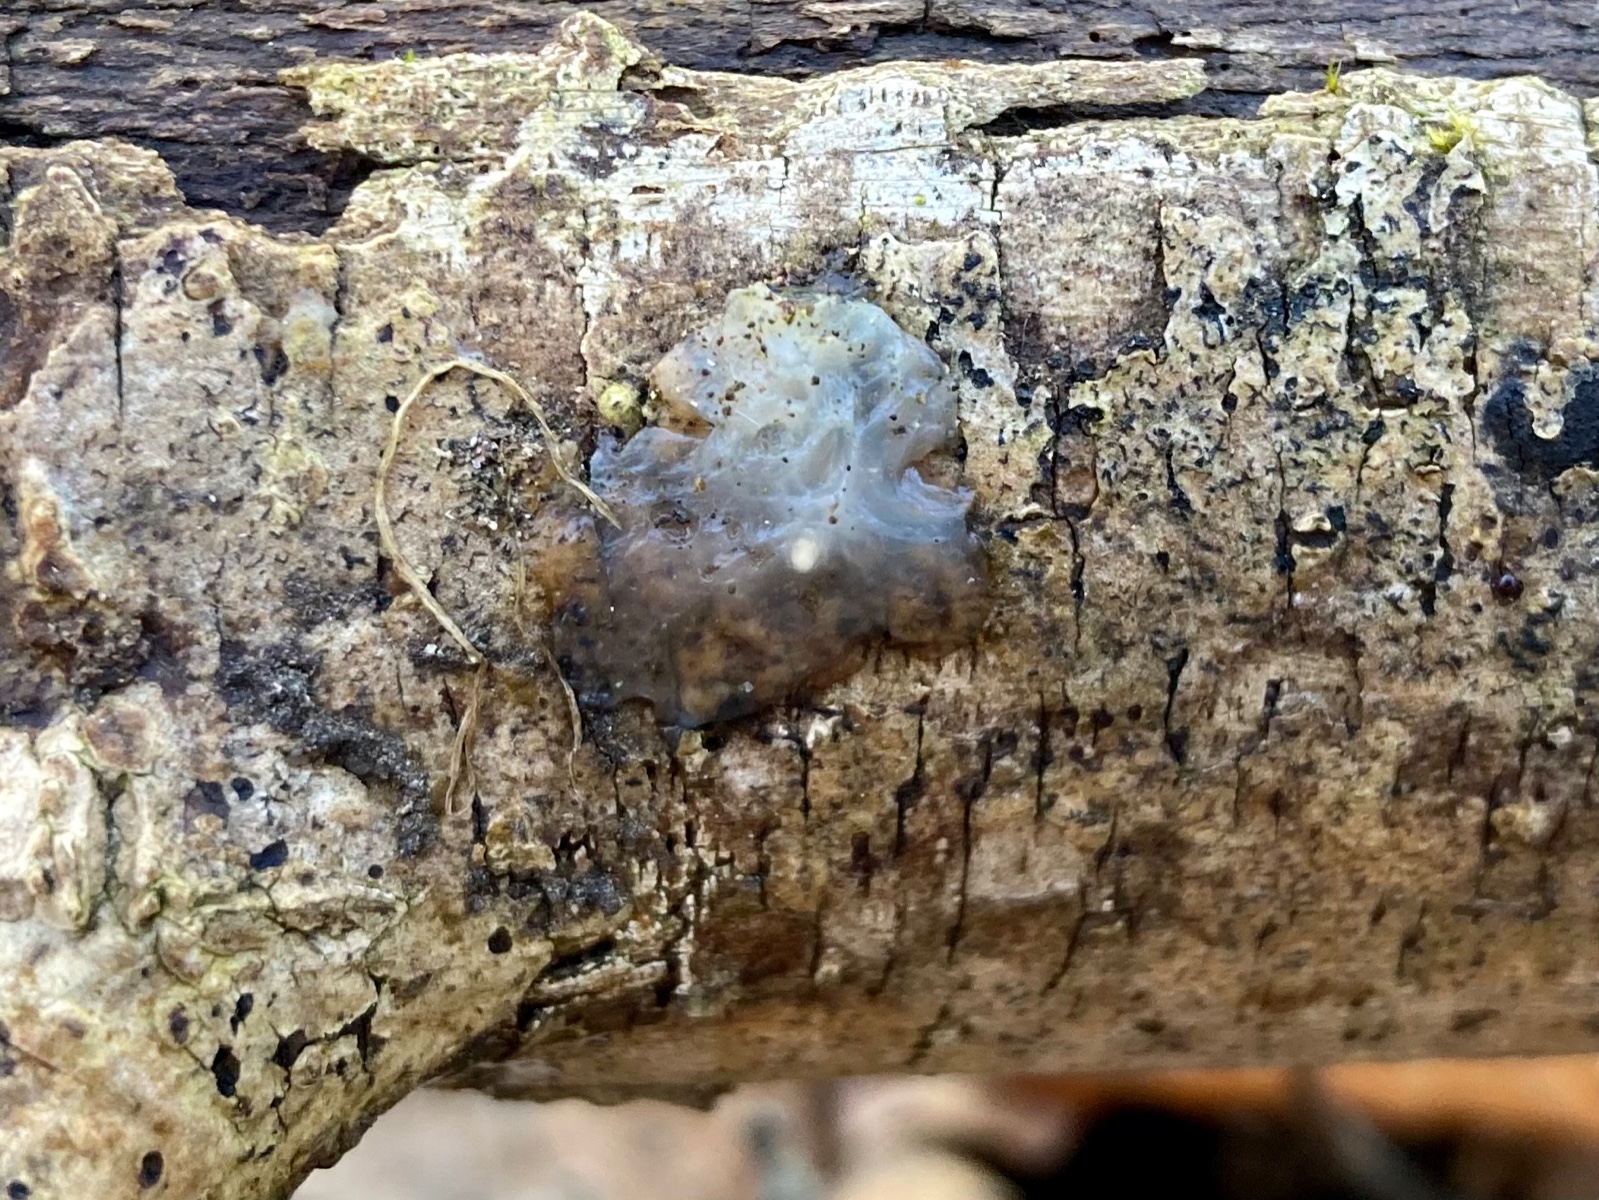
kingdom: Fungi
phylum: Basidiomycota
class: Agaricomycetes
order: Auriculariales
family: Hyaloriaceae
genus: Myxarium
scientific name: Myxarium nucleatum
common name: klar bævretop
